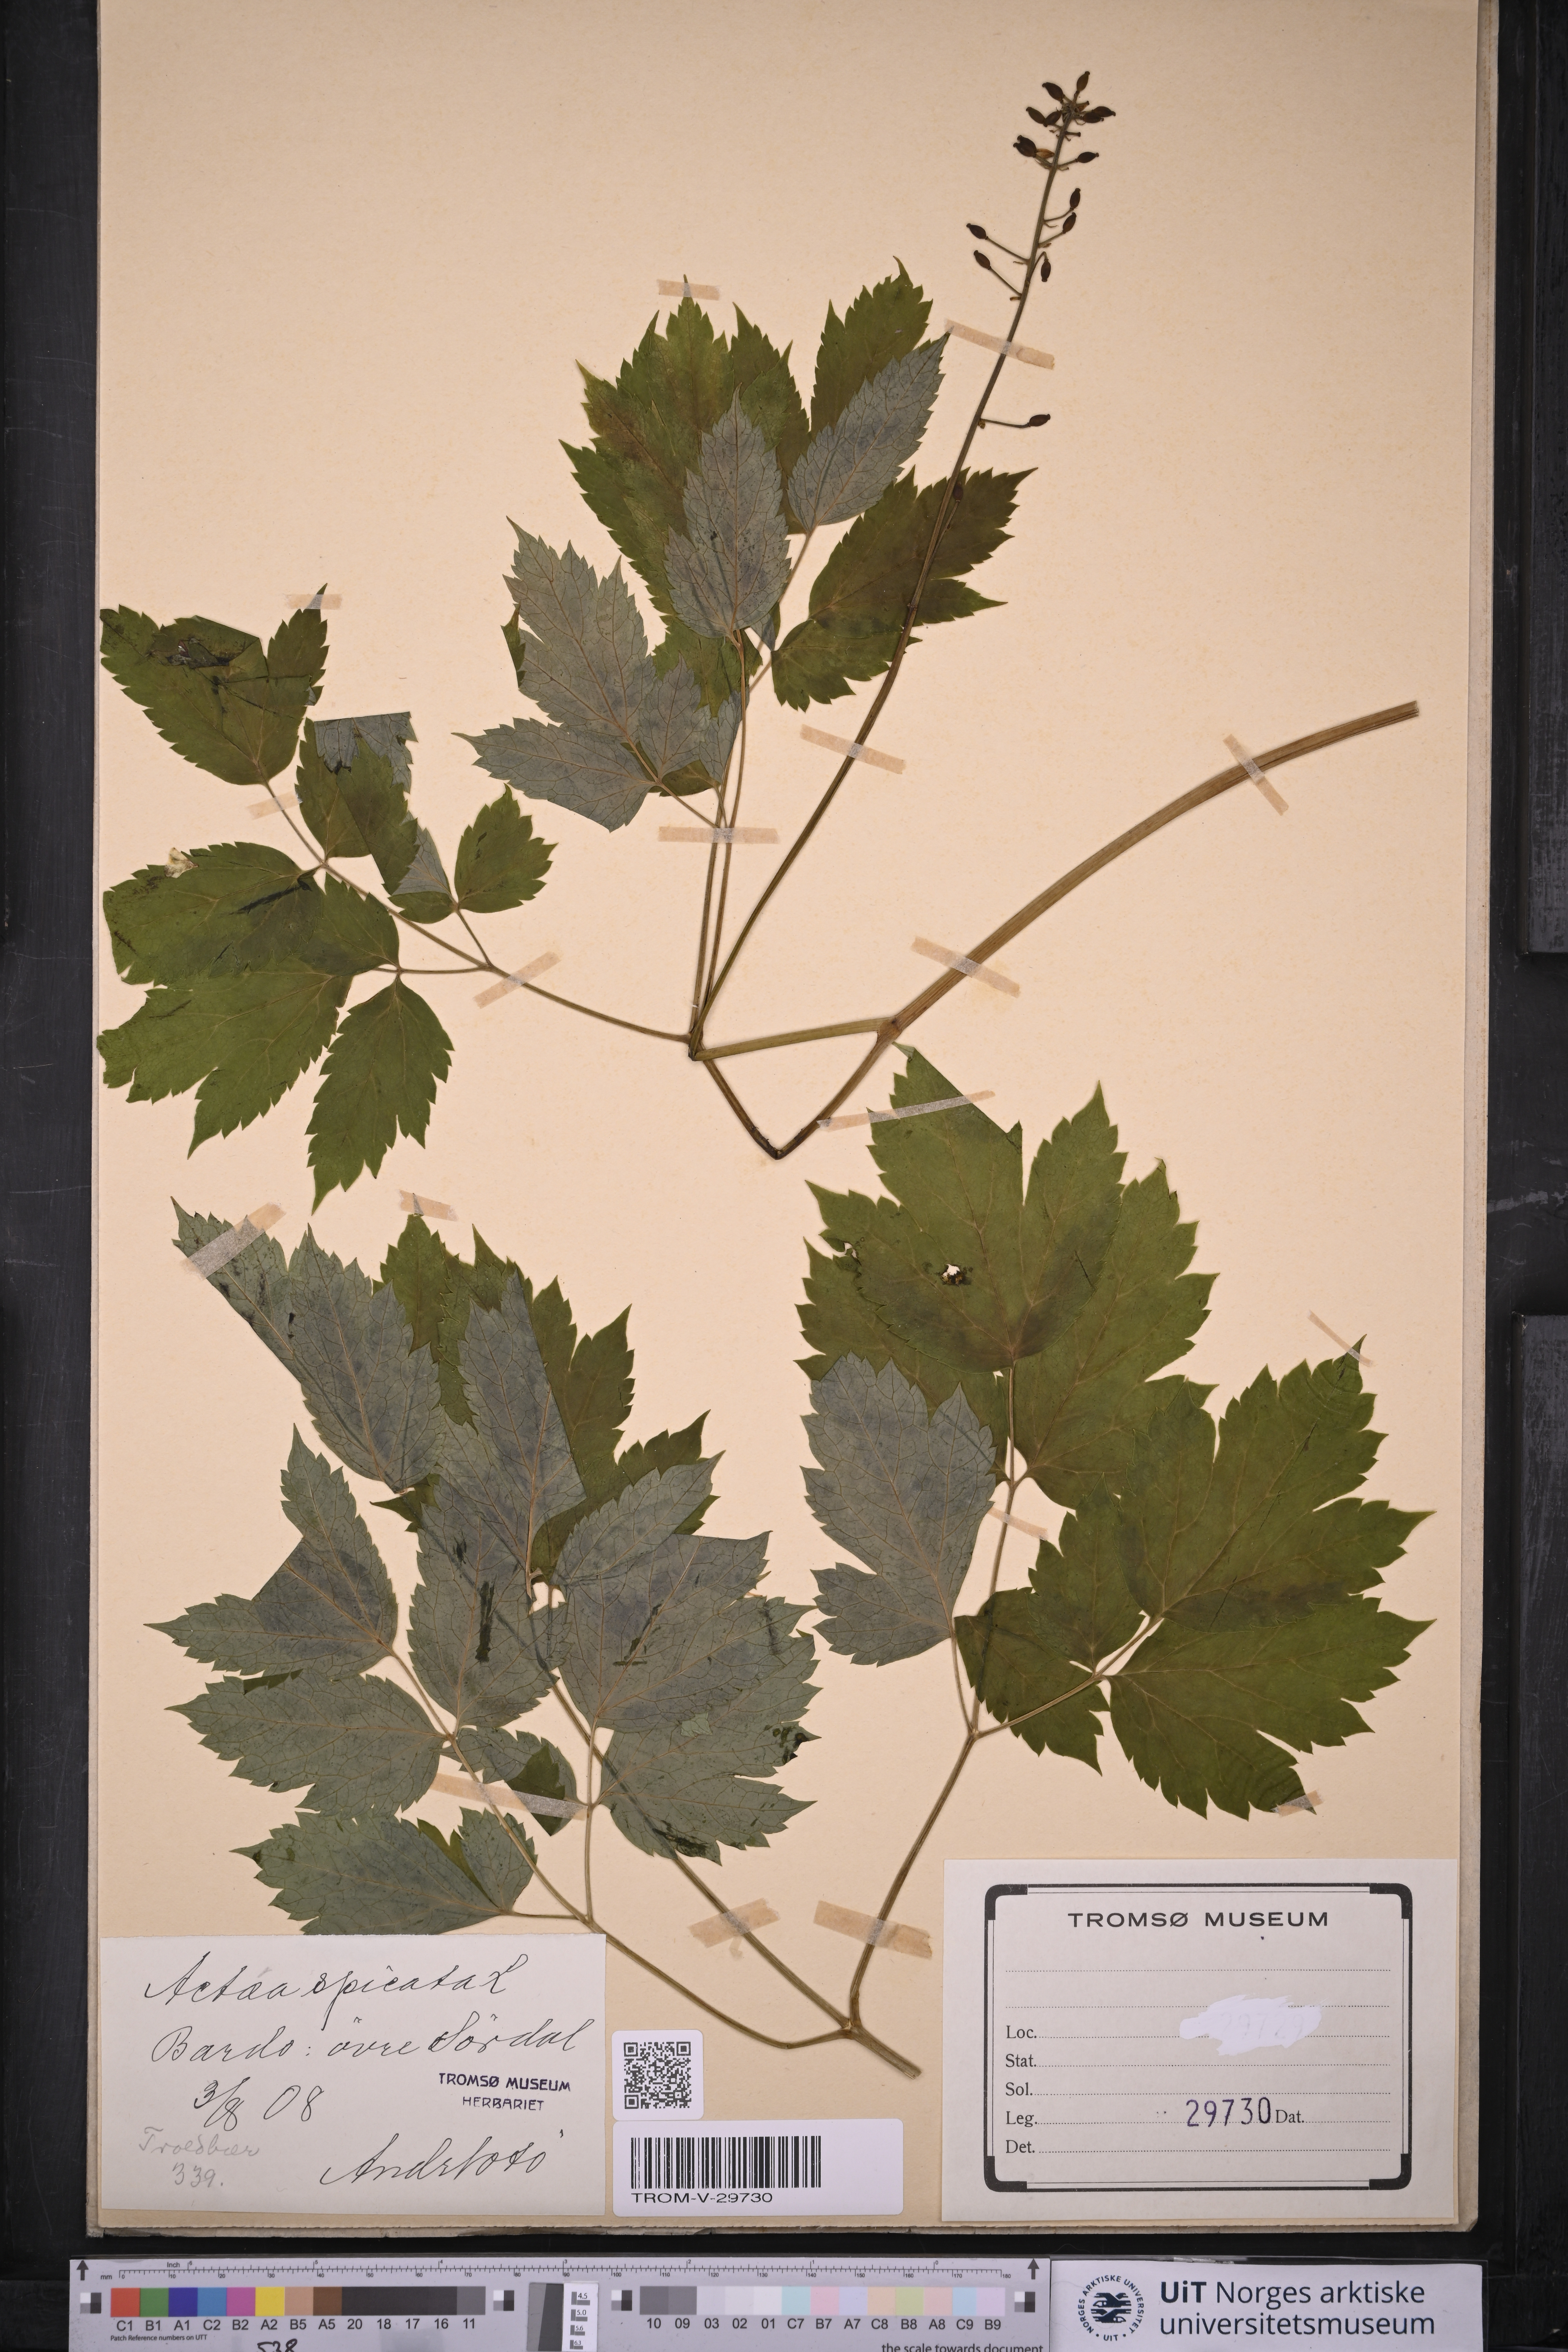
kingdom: Plantae
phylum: Tracheophyta
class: Magnoliopsida
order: Ranunculales
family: Ranunculaceae
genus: Actaea
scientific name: Actaea spicata
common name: Baneberry
